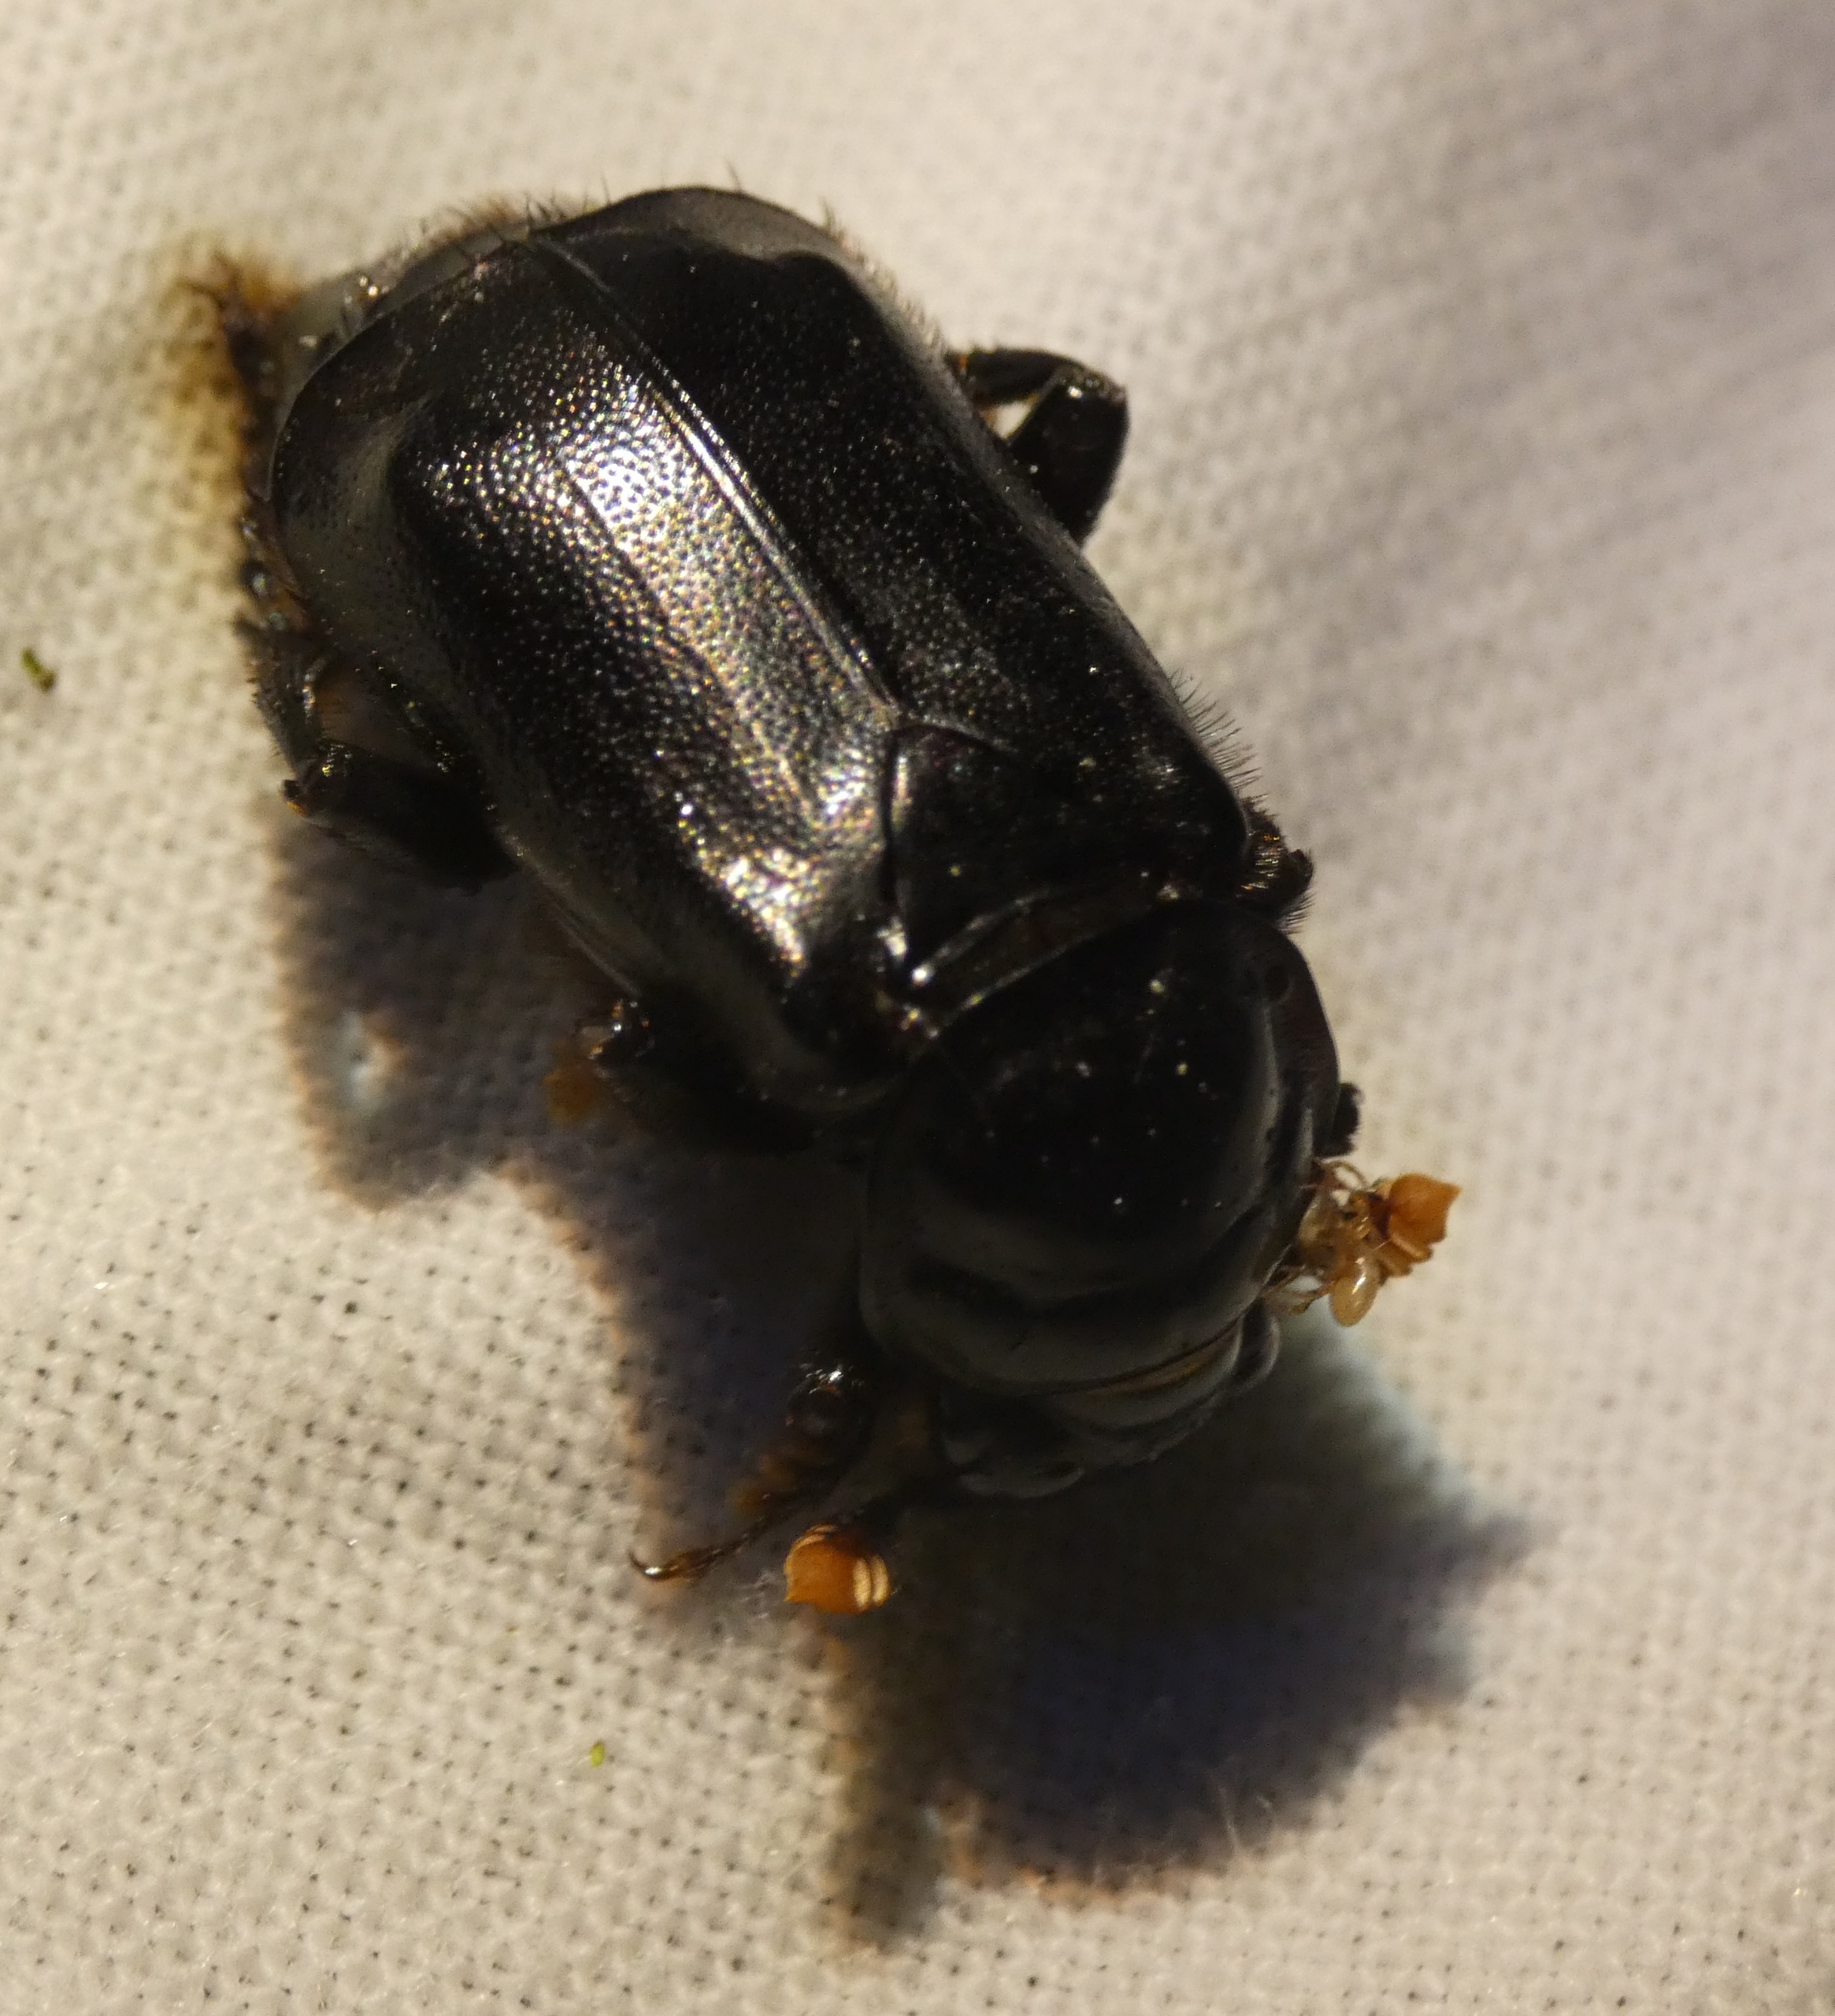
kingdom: Animalia
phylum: Arthropoda
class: Insecta
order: Coleoptera
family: Staphylinidae
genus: Nicrophorus
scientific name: Nicrophorus humator
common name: Sort ådselgraver
